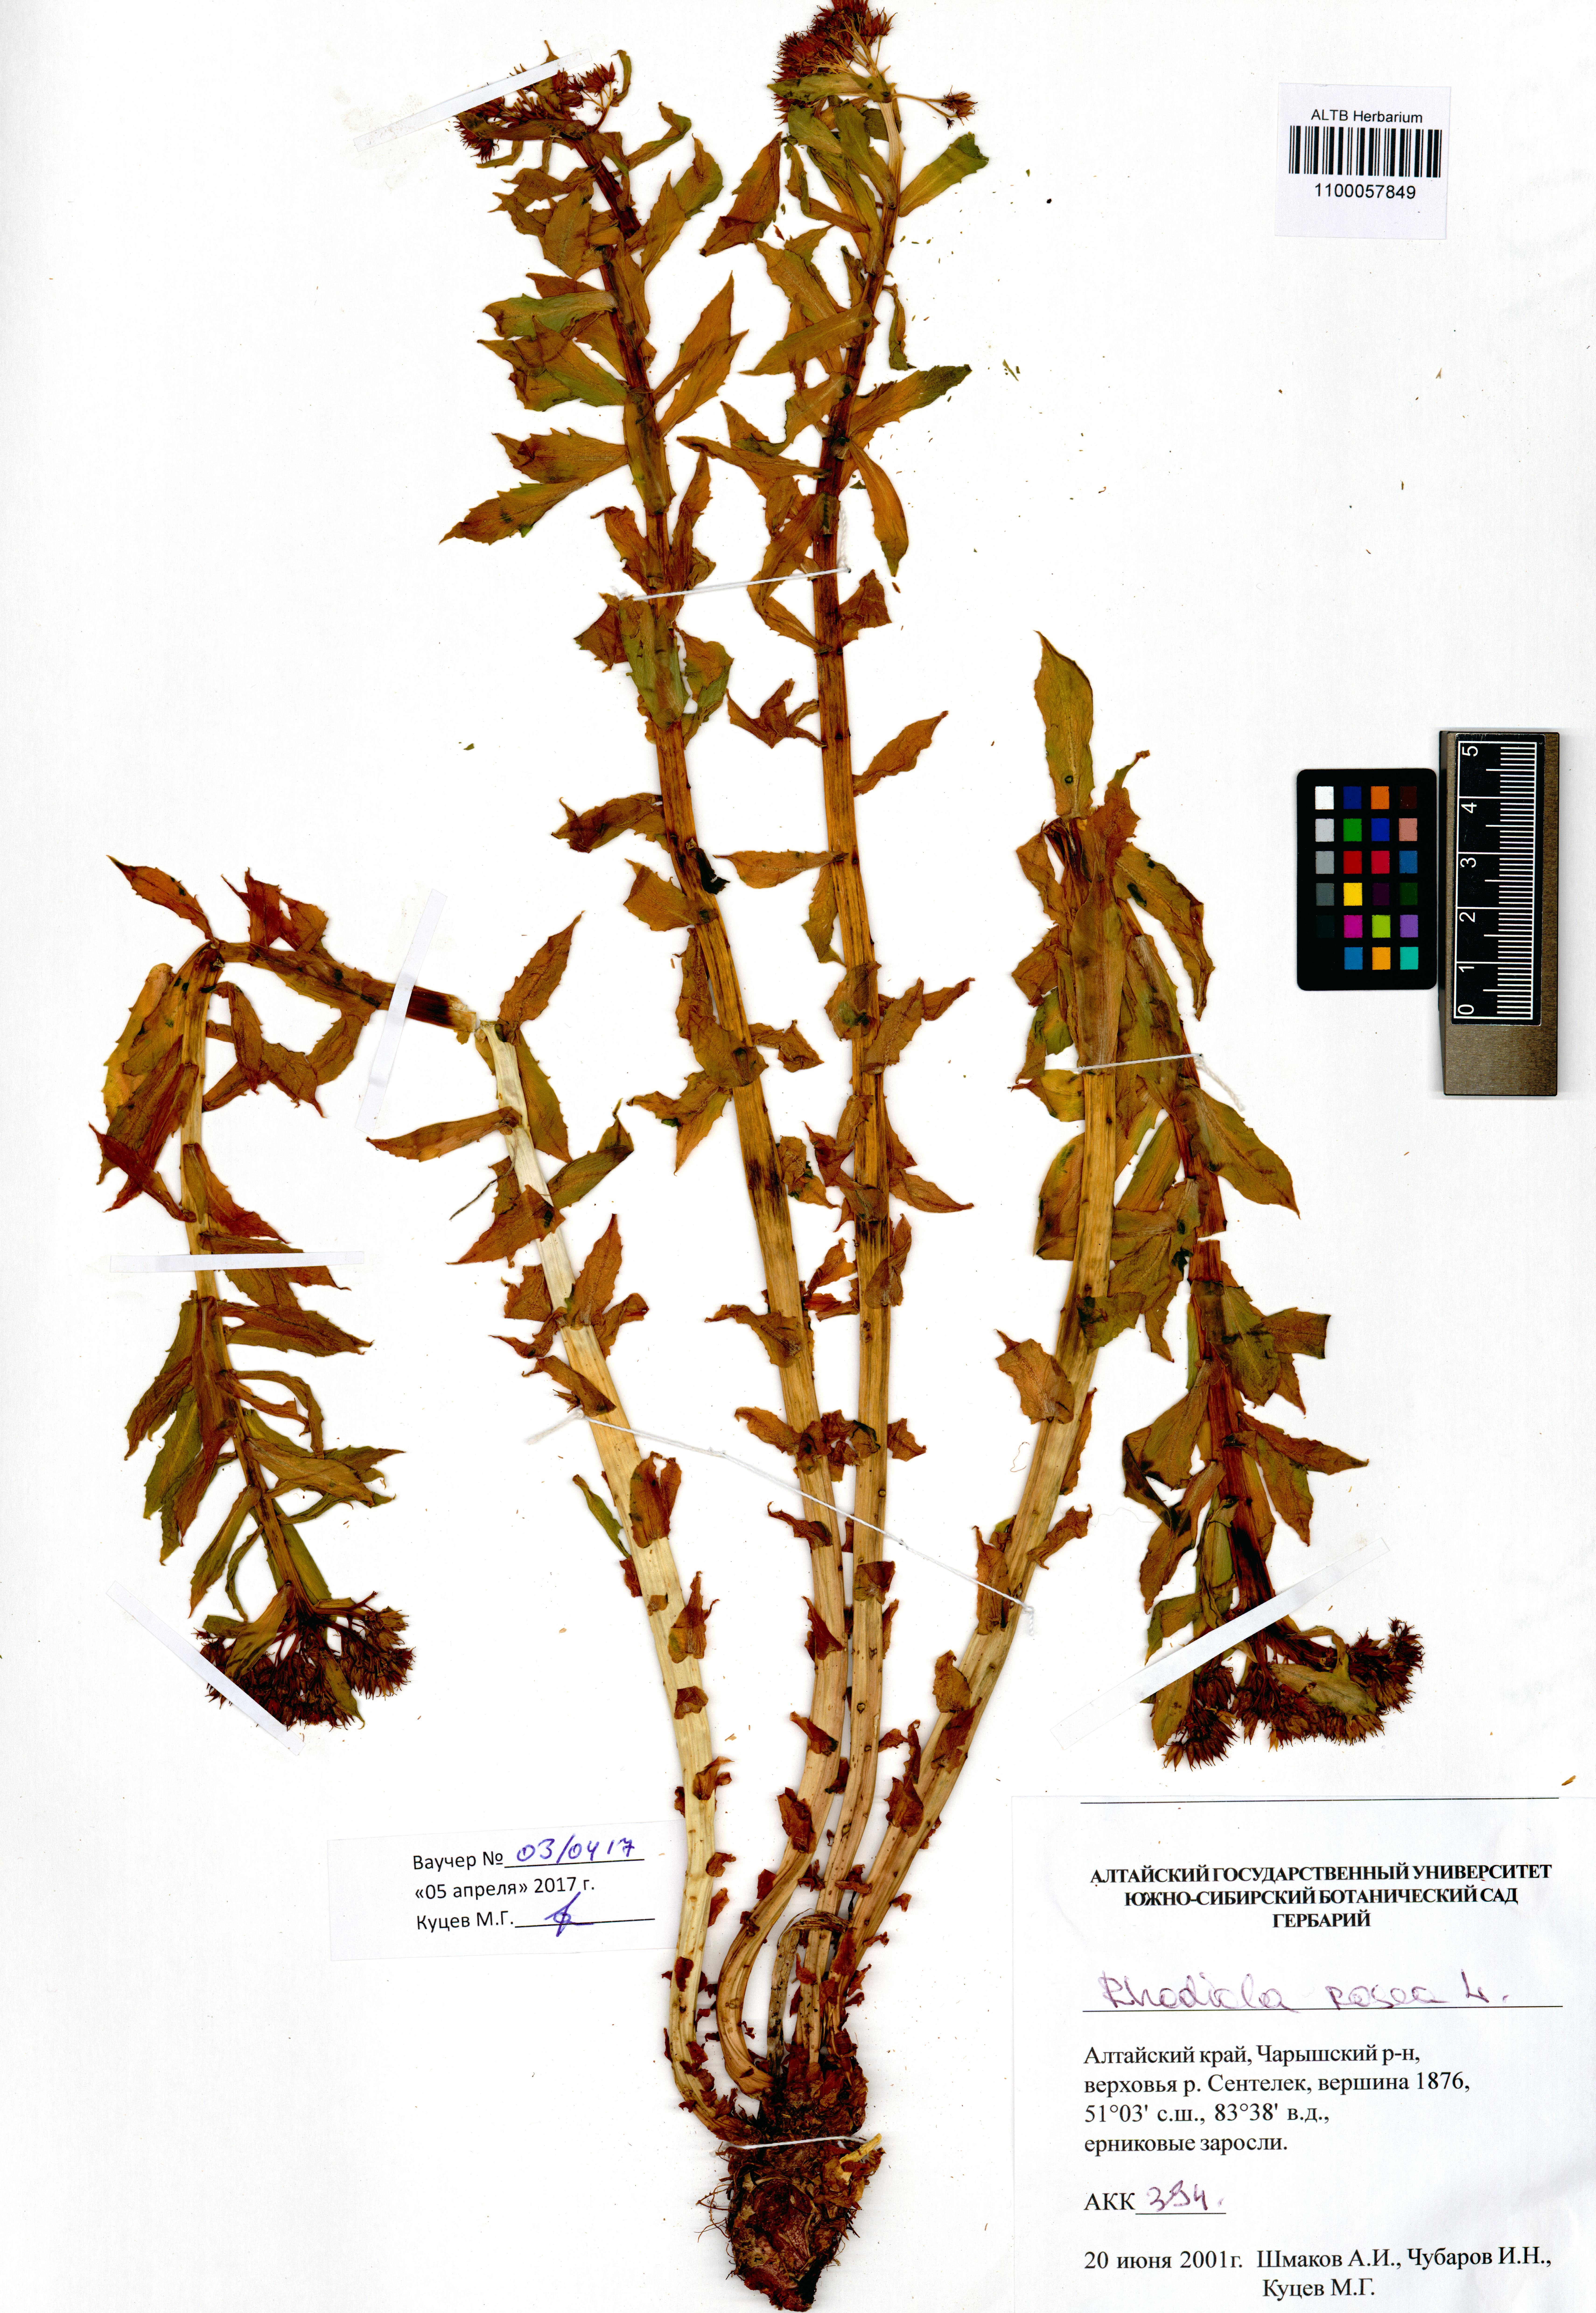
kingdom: Plantae
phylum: Tracheophyta
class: Magnoliopsida
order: Saxifragales
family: Crassulaceae
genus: Rhodiola
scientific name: Rhodiola rosea
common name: Roseroot
